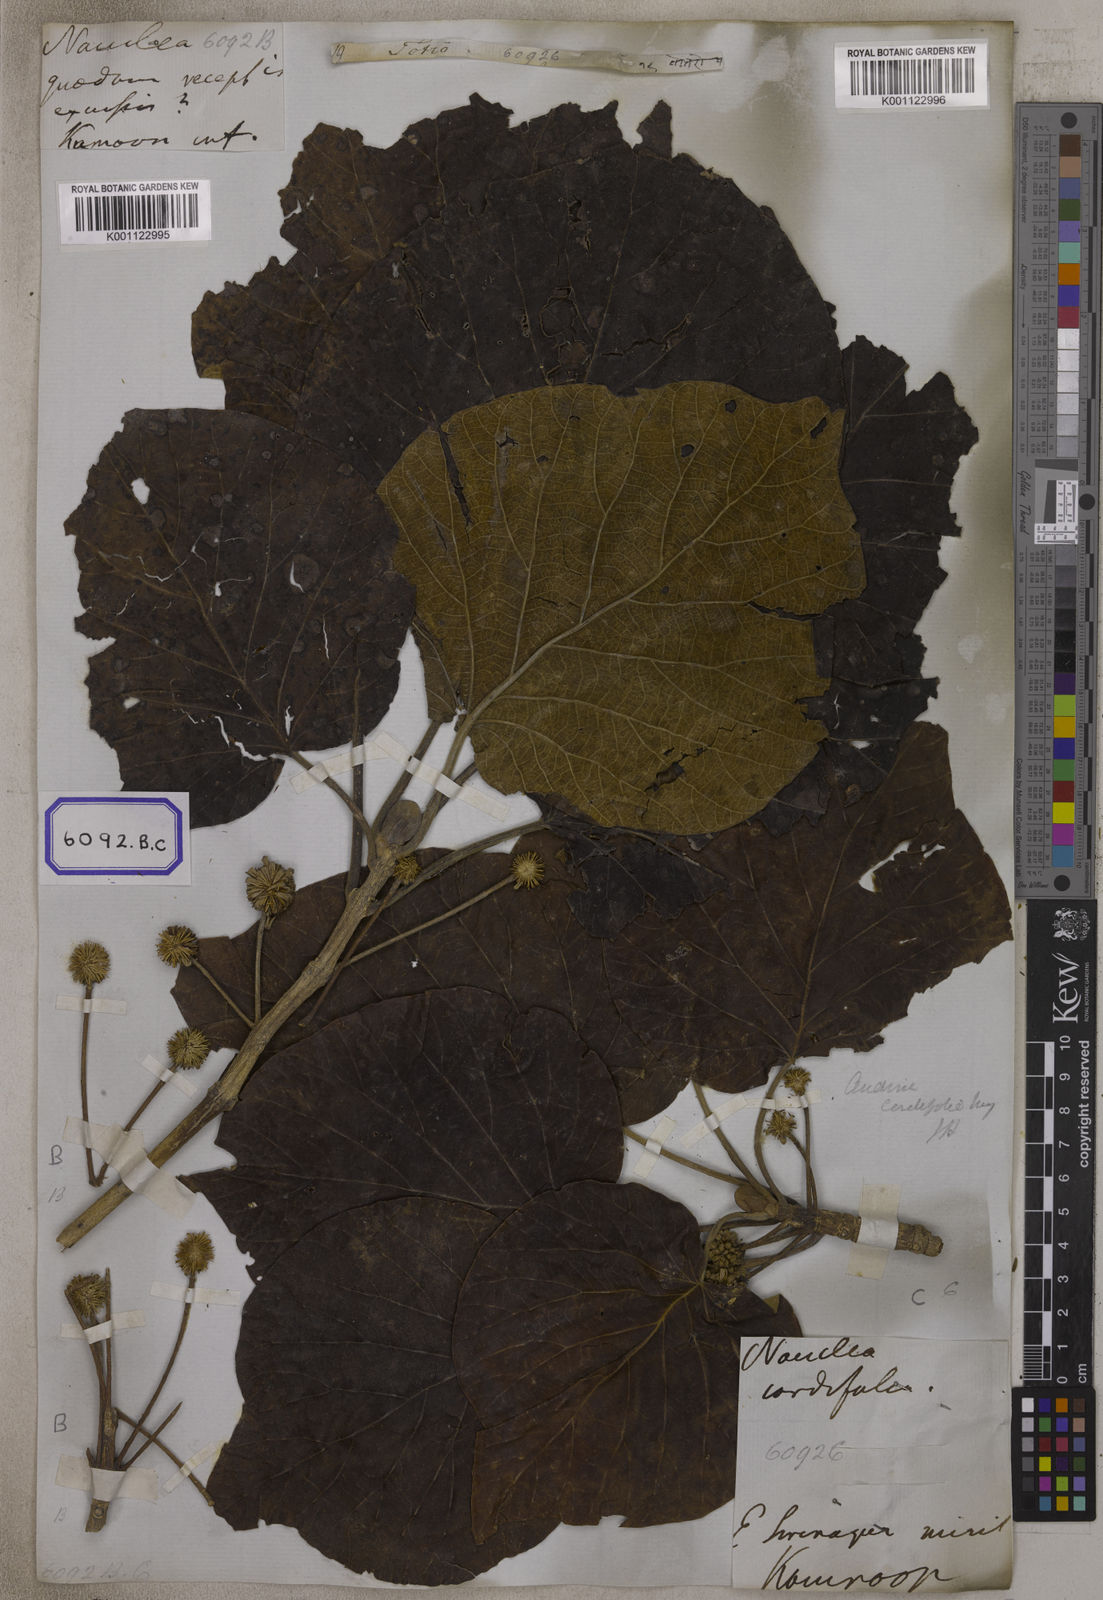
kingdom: Plantae
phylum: Tracheophyta
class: Magnoliopsida
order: Gentianales
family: Rubiaceae
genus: Adina
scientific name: Adina cordifolia
